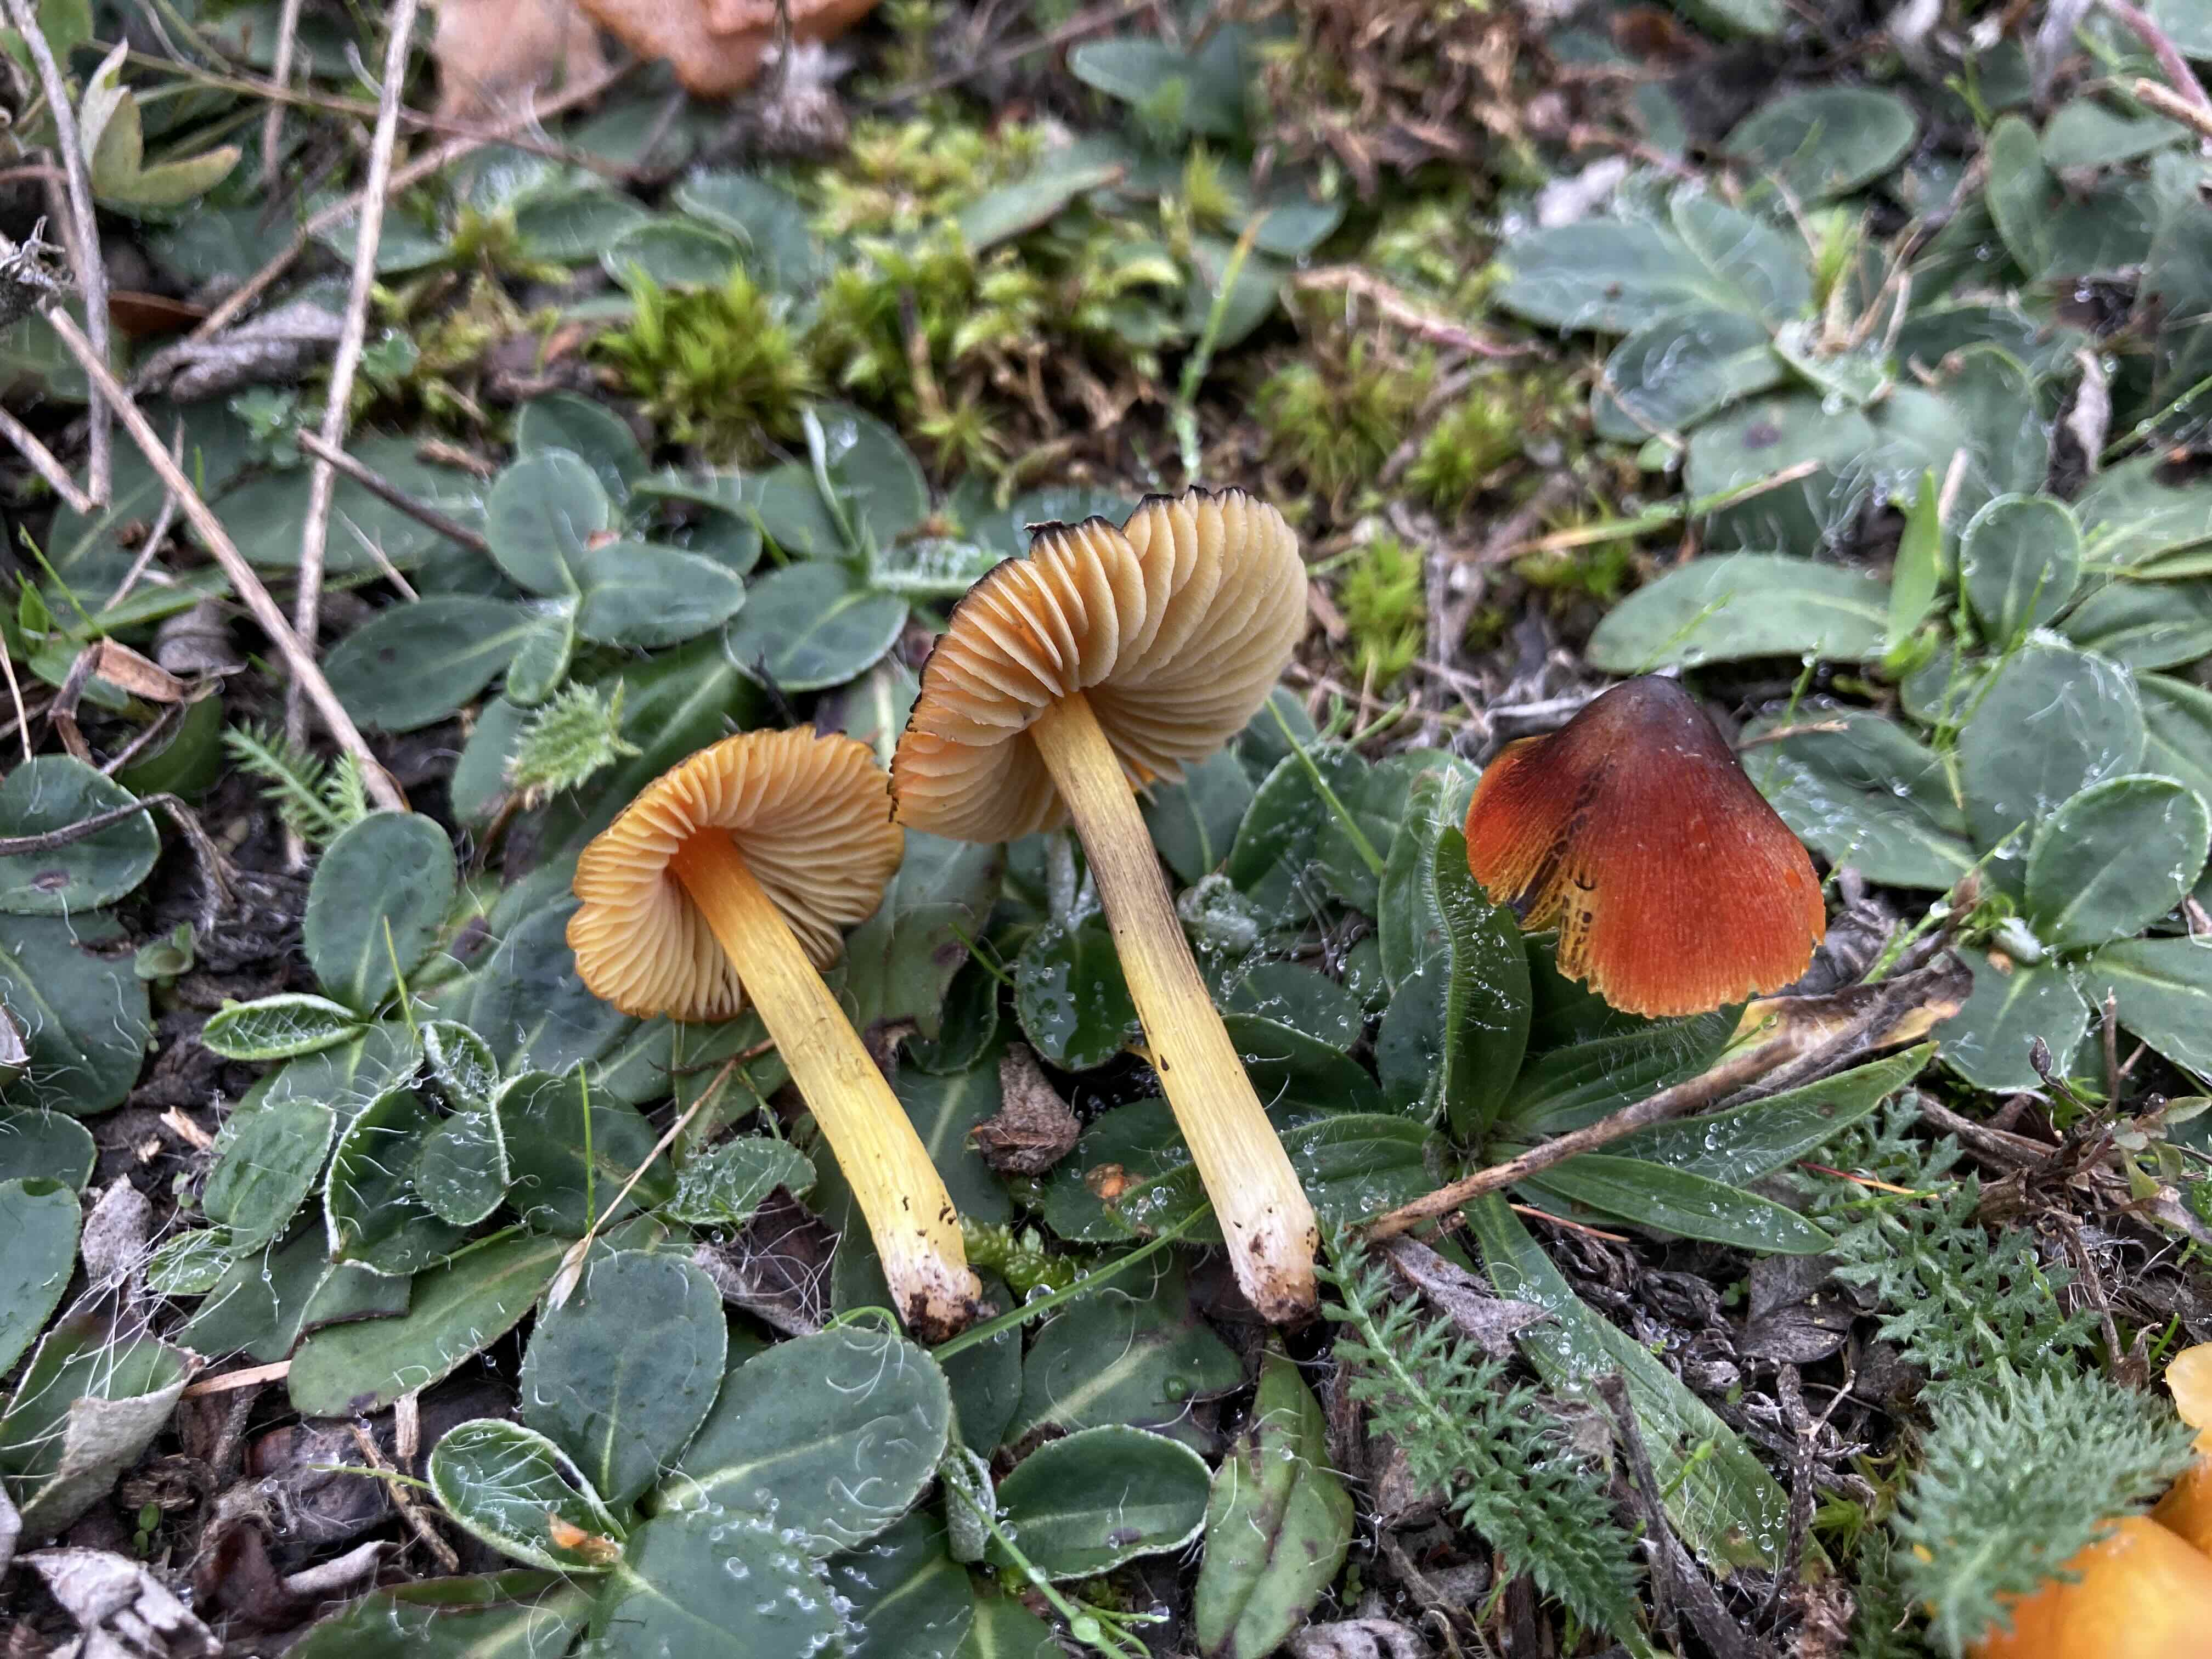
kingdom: Fungi
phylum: Basidiomycota
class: Agaricomycetes
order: Agaricales
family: Hygrophoraceae
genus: Hygrocybe
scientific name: Hygrocybe conica
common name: kegle-vokshat
